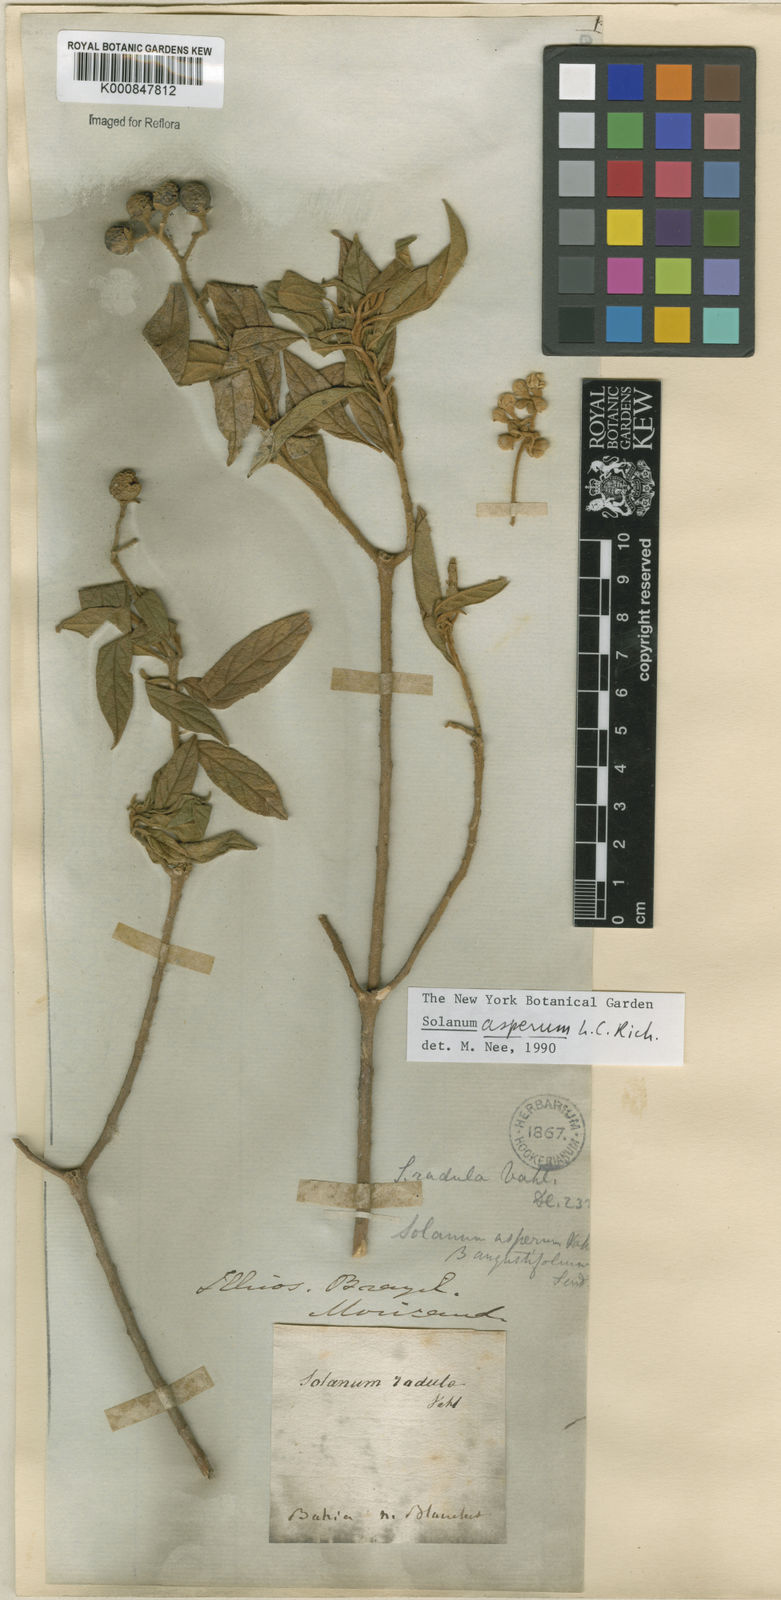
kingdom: Plantae
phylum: Tracheophyta
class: Magnoliopsida
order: Solanales
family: Solanaceae
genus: Solanum
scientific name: Solanum asperum
